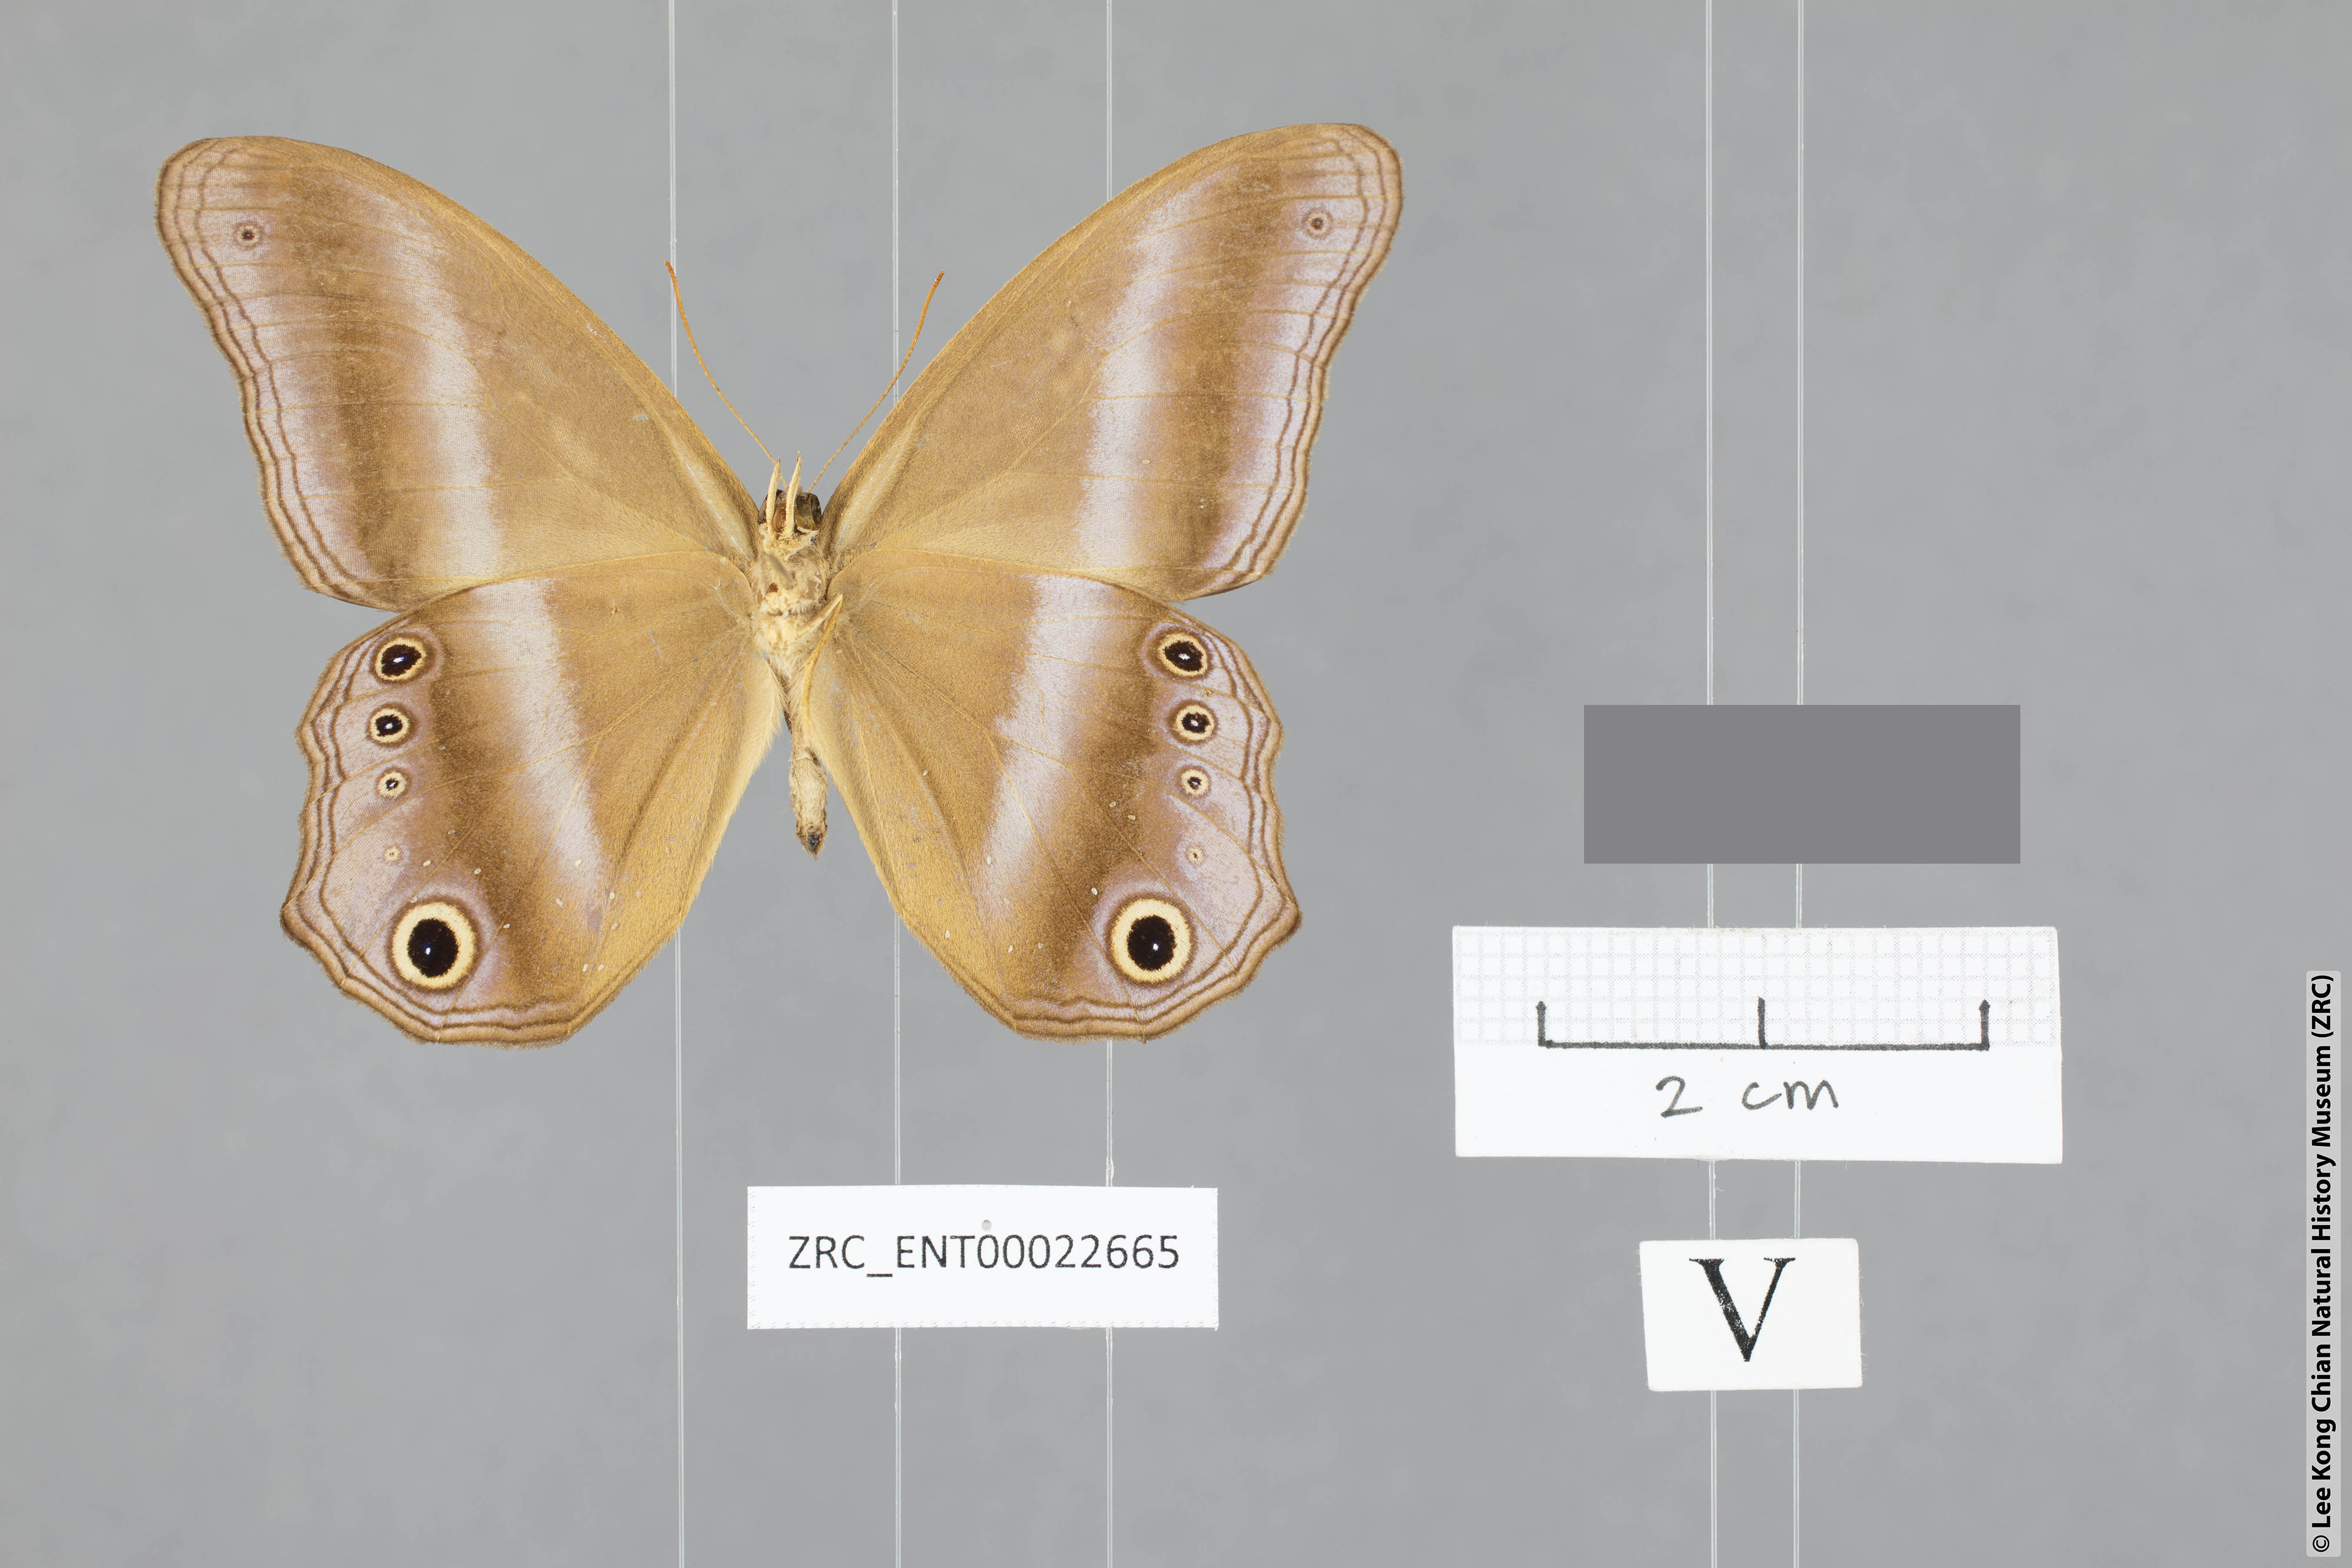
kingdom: Animalia
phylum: Arthropoda
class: Insecta
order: Lepidoptera
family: Nymphalidae
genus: Coelites
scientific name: Coelites euptychioides
